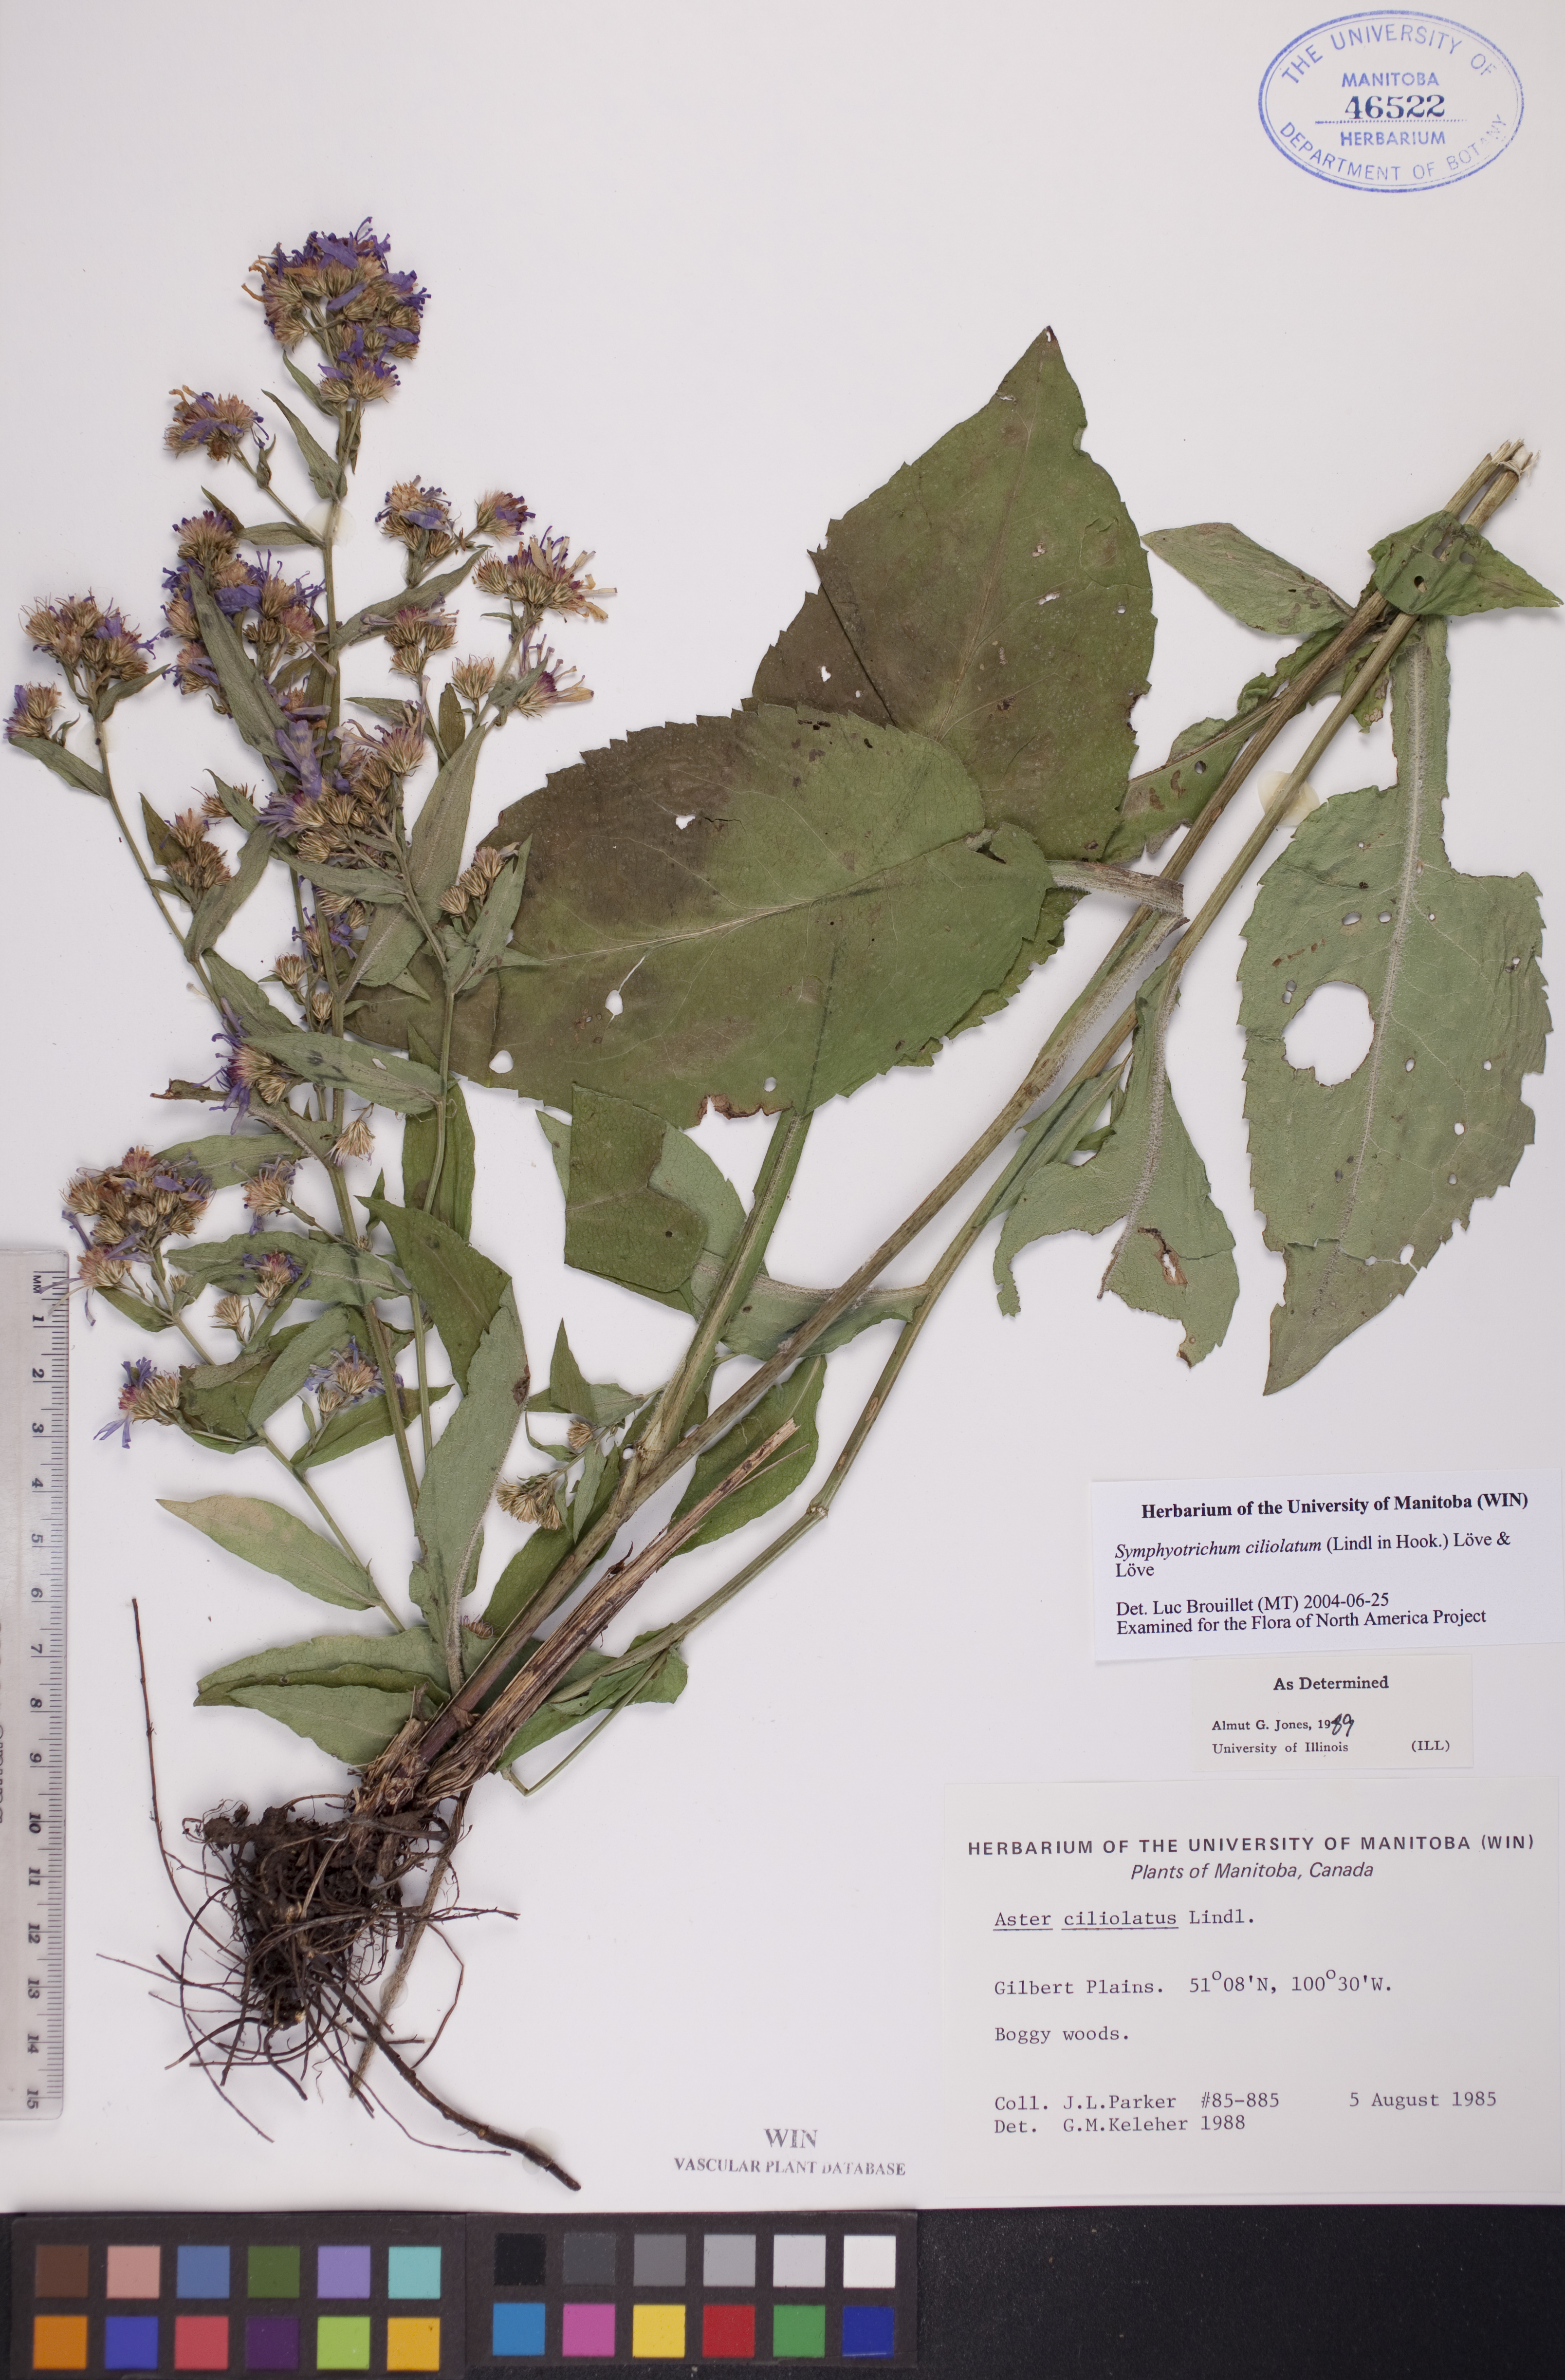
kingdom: Plantae
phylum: Tracheophyta
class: Magnoliopsida
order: Asterales
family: Asteraceae
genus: Symphyotrichum
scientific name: Symphyotrichum ciliolatum
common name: Fringed blue aster
